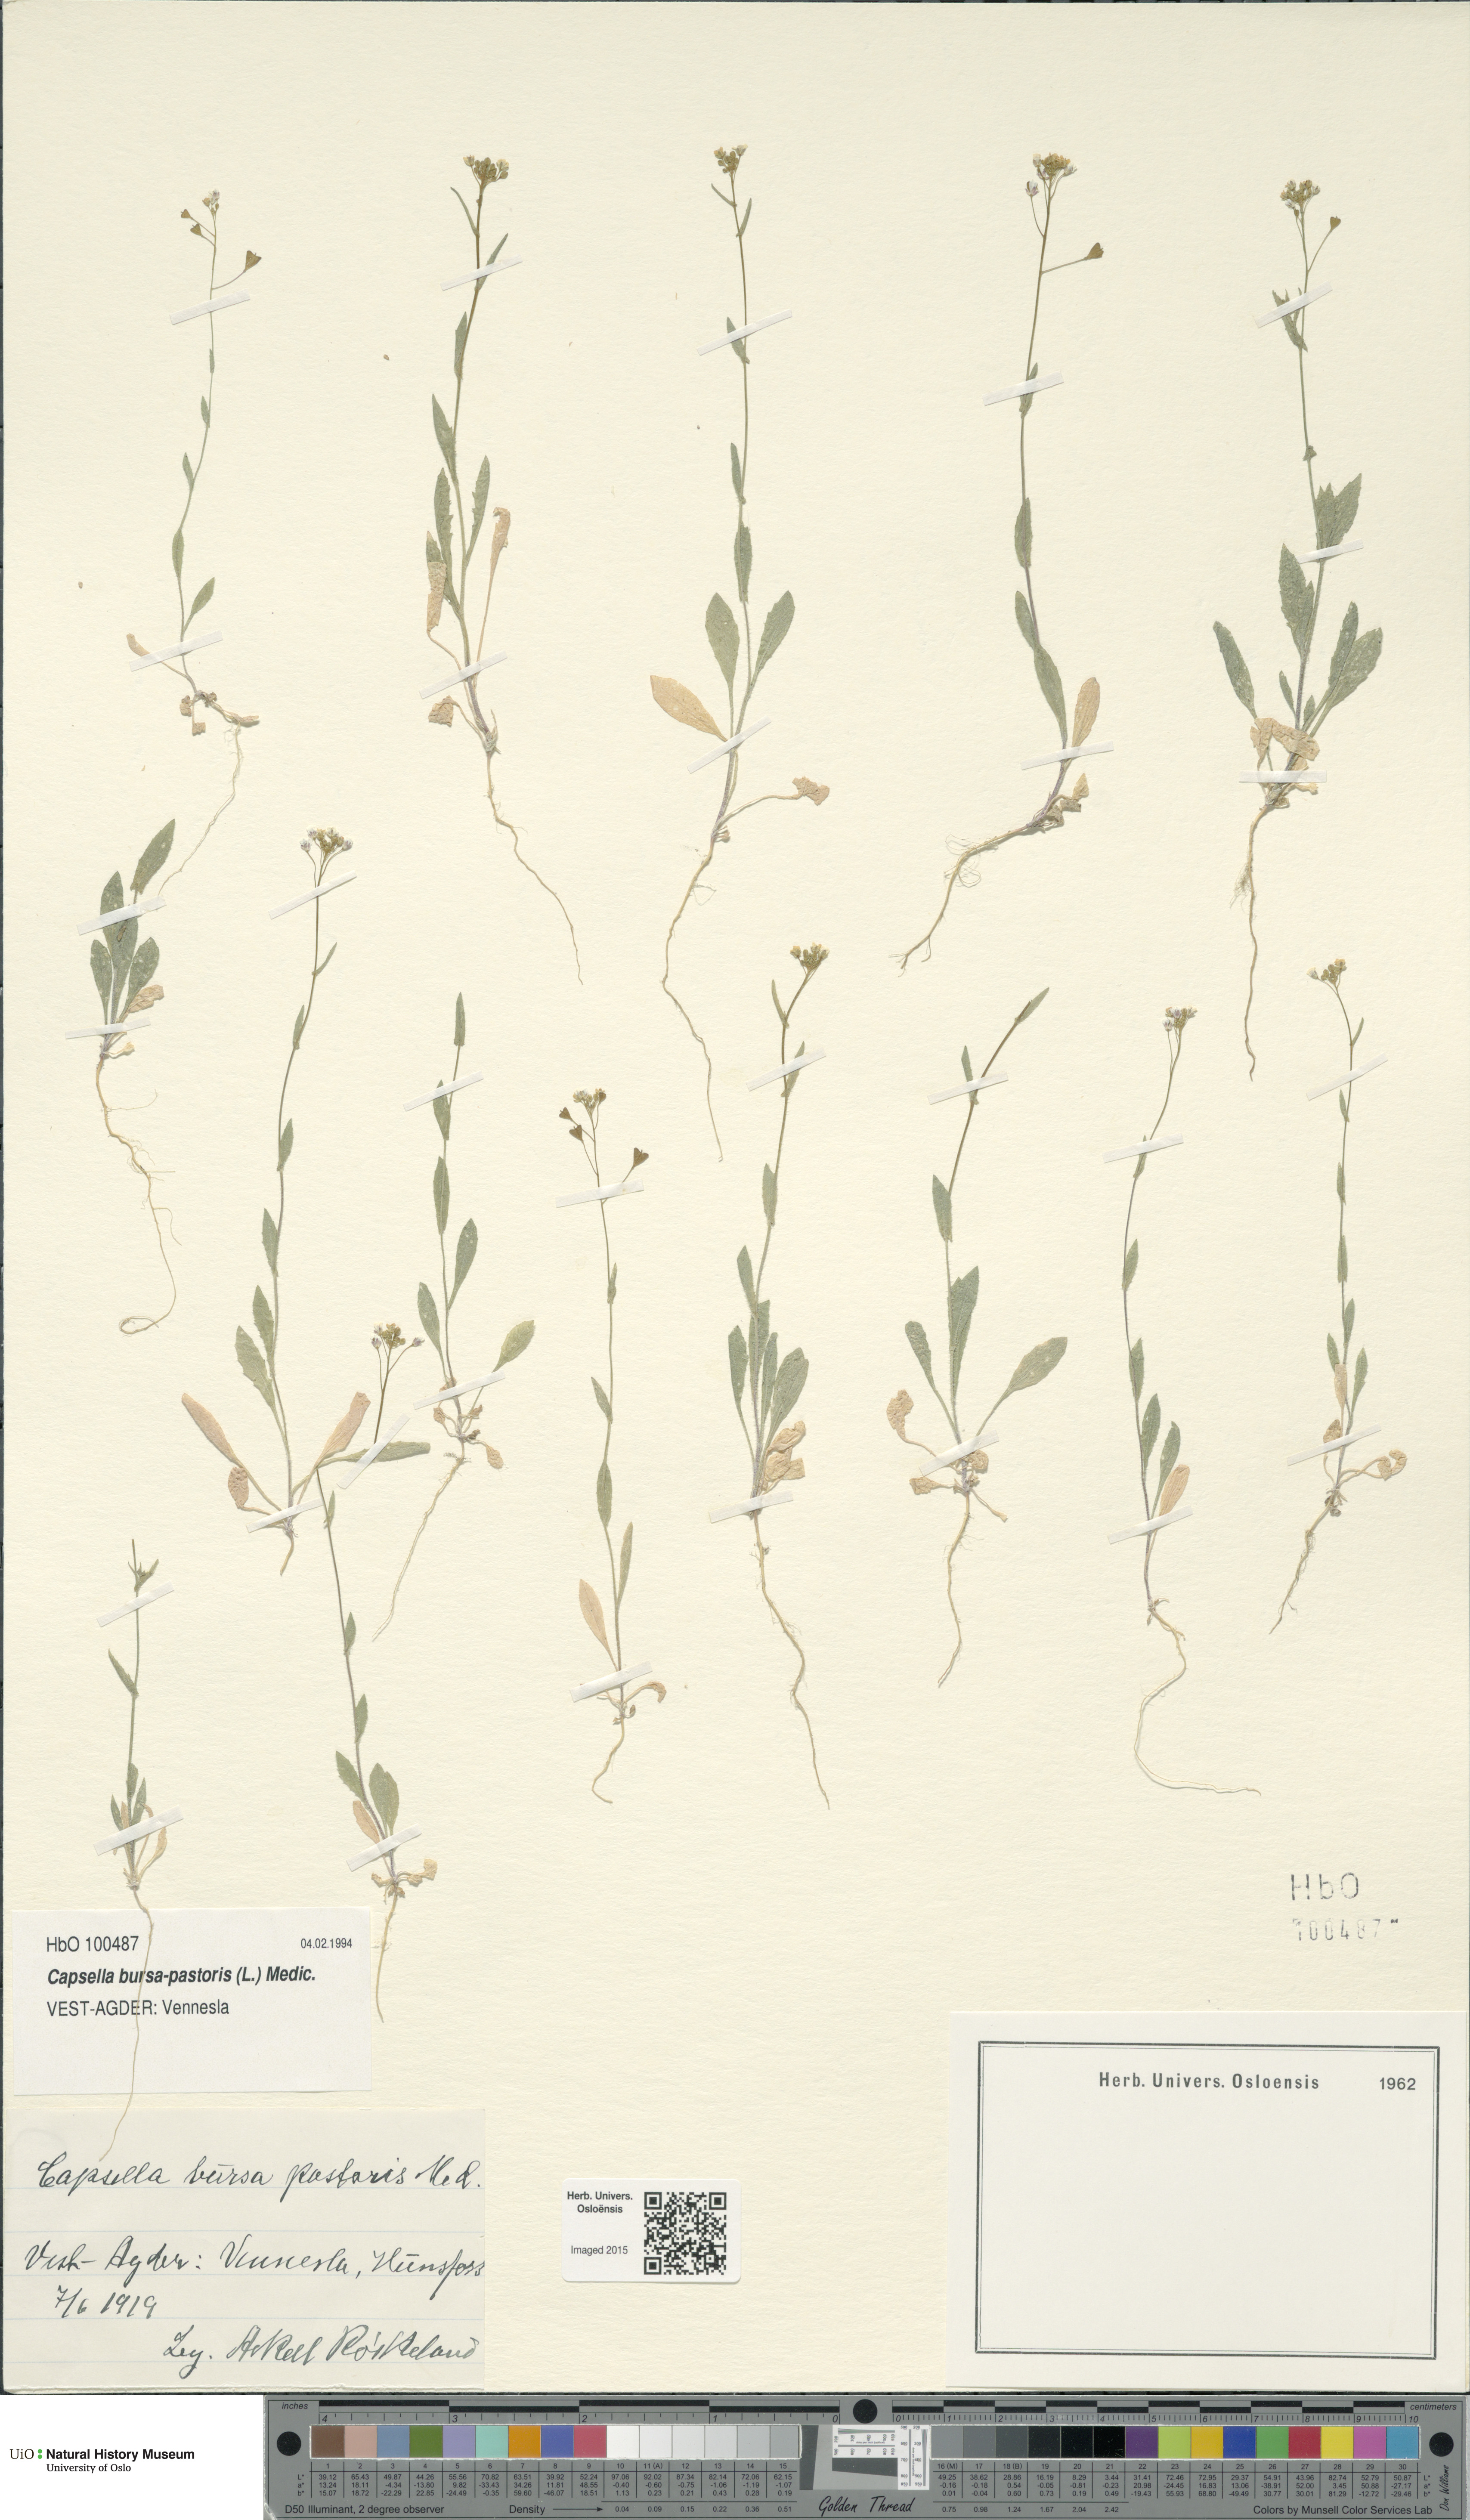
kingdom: Plantae
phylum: Tracheophyta
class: Magnoliopsida
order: Brassicales
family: Brassicaceae
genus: Capsella
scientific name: Capsella bursa-pastoris
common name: Shepherd's purse
